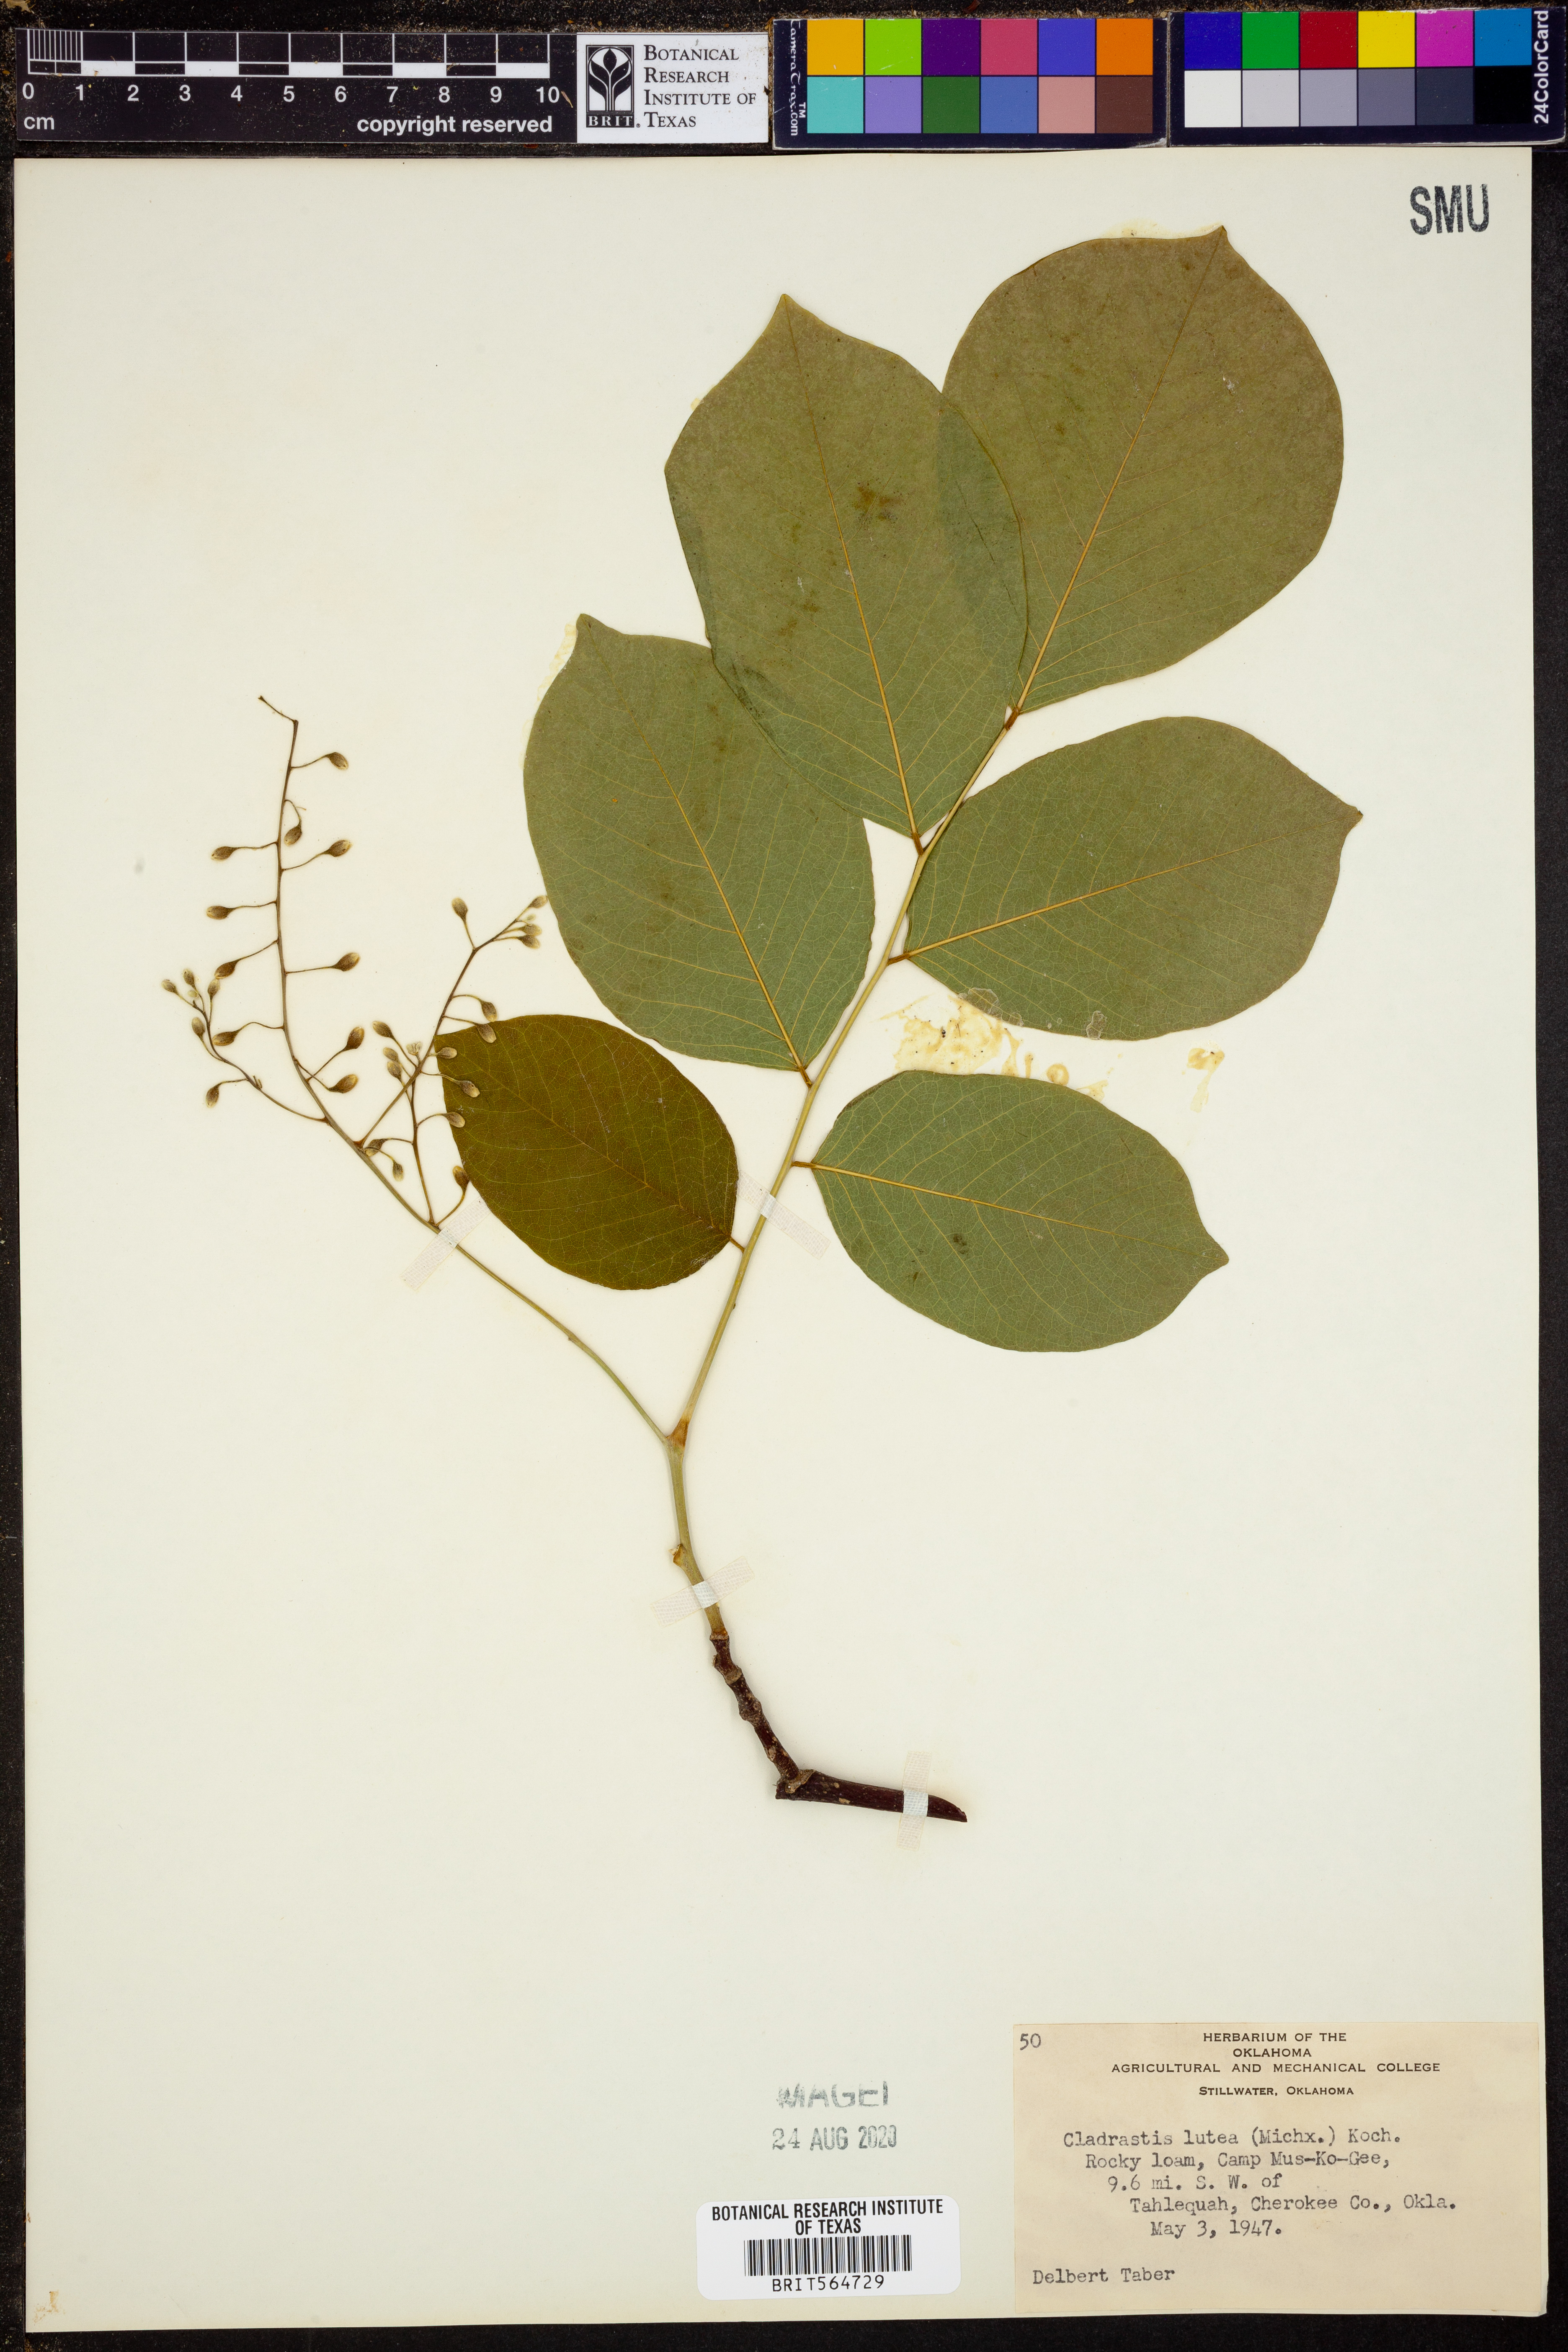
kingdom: Plantae
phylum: Tracheophyta
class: Magnoliopsida
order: Fabales
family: Fabaceae
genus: Cladrastis
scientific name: Cladrastis kentukea
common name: Kentucky yellow-wood
